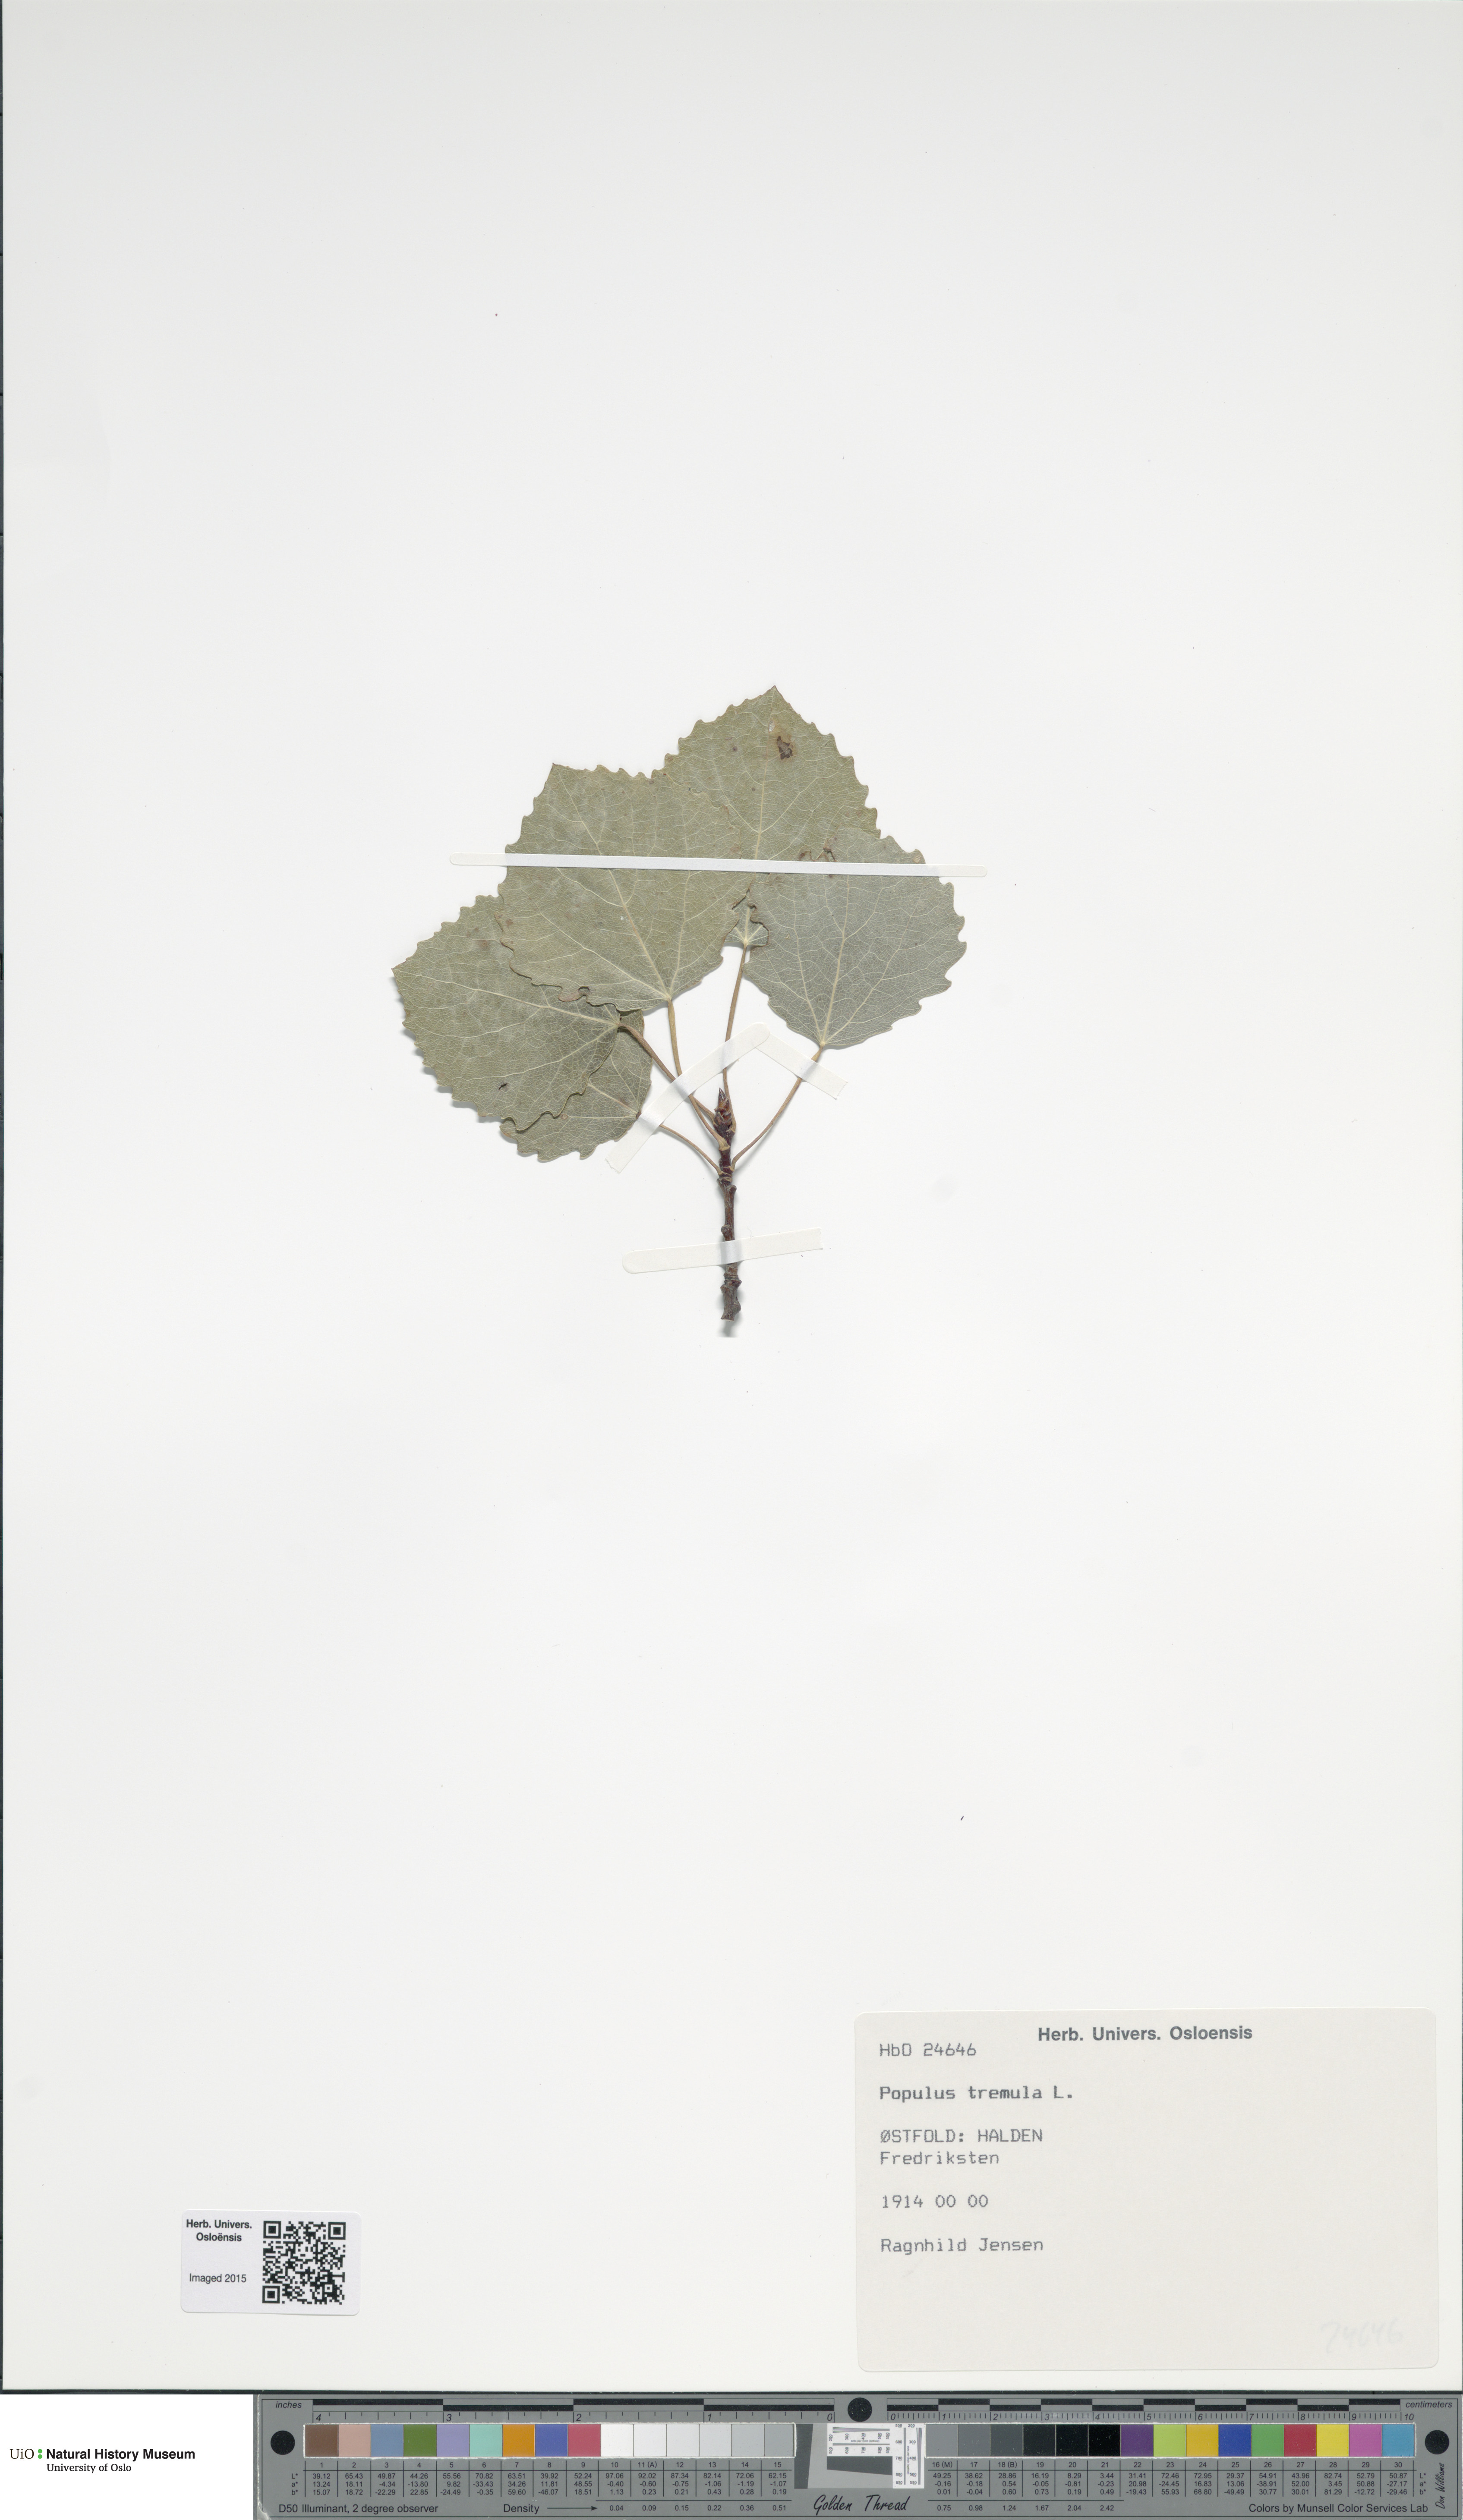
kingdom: Plantae
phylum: Tracheophyta
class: Magnoliopsida
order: Malpighiales
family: Salicaceae
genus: Populus
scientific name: Populus tremula
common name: European aspen
